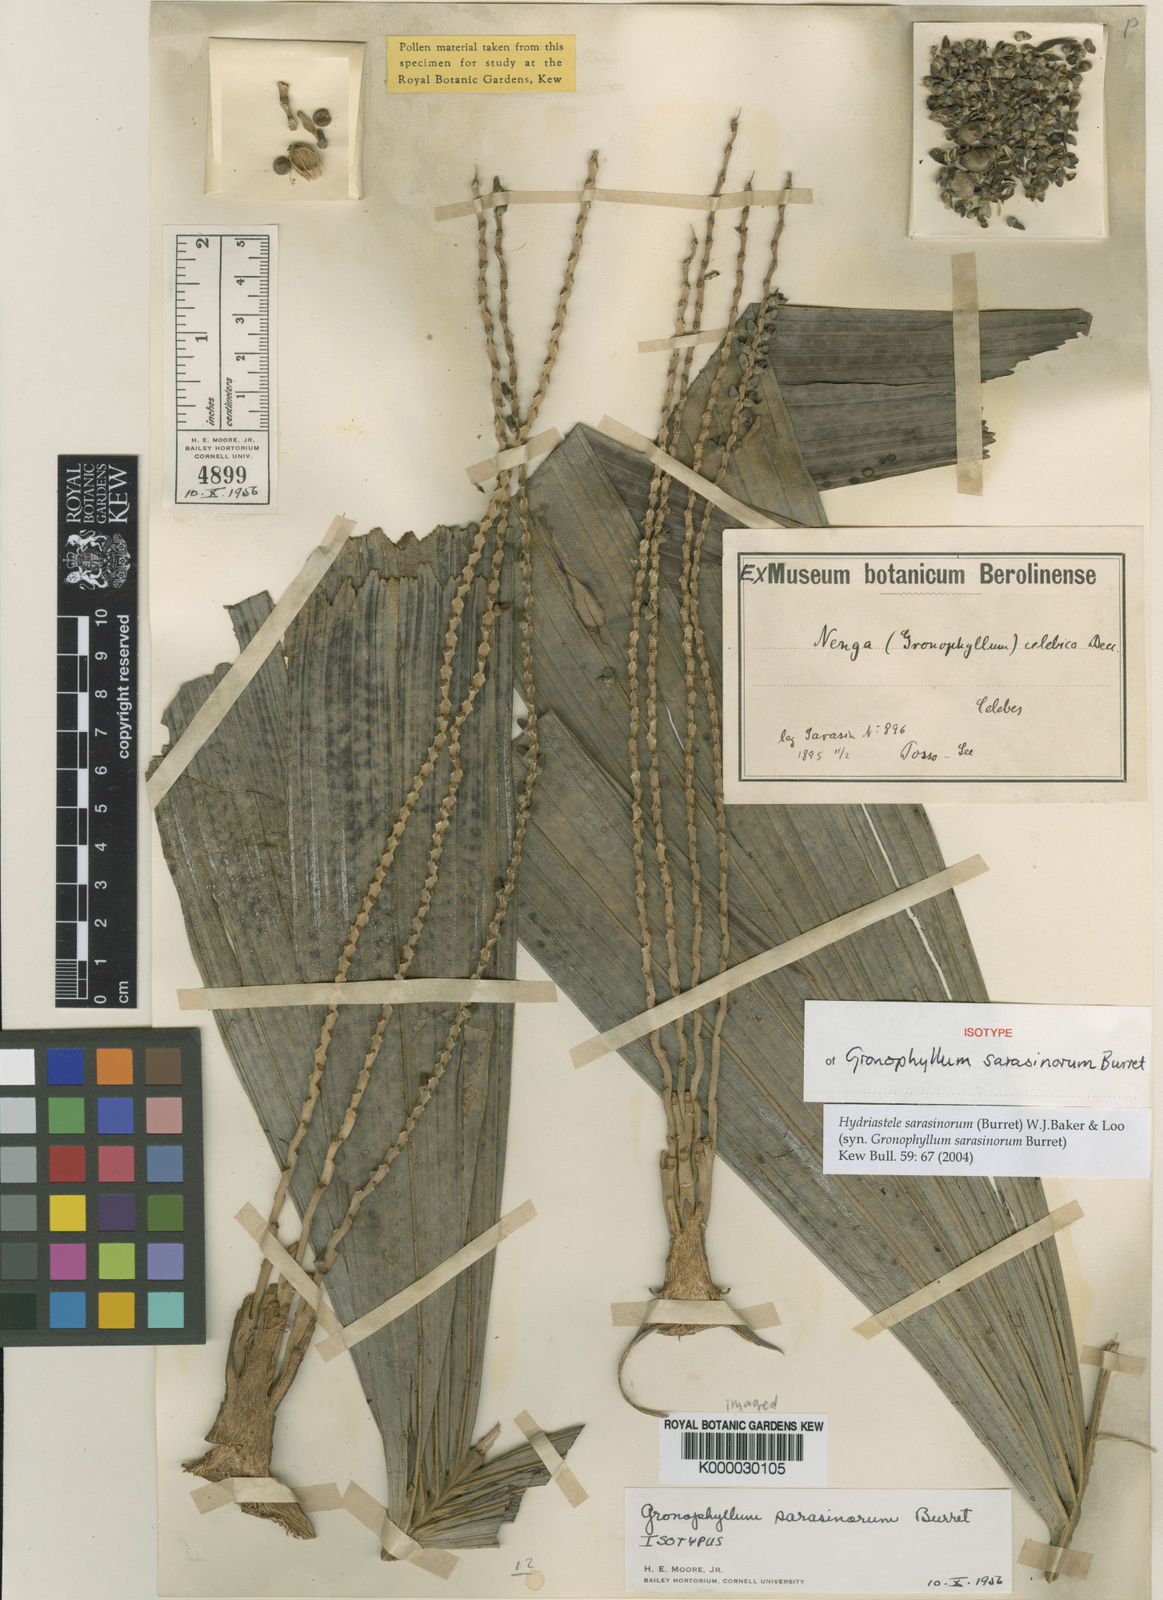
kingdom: Plantae
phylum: Tracheophyta
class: Liliopsida
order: Arecales
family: Arecaceae
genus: Hydriastele
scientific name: Hydriastele sarasinorum
